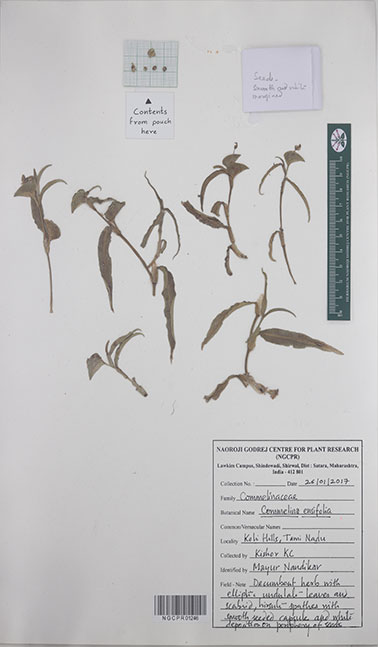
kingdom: Plantae
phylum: Tracheophyta
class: Liliopsida
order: Commelinales
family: Commelinaceae
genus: Commelina
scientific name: Commelina ensifolia
